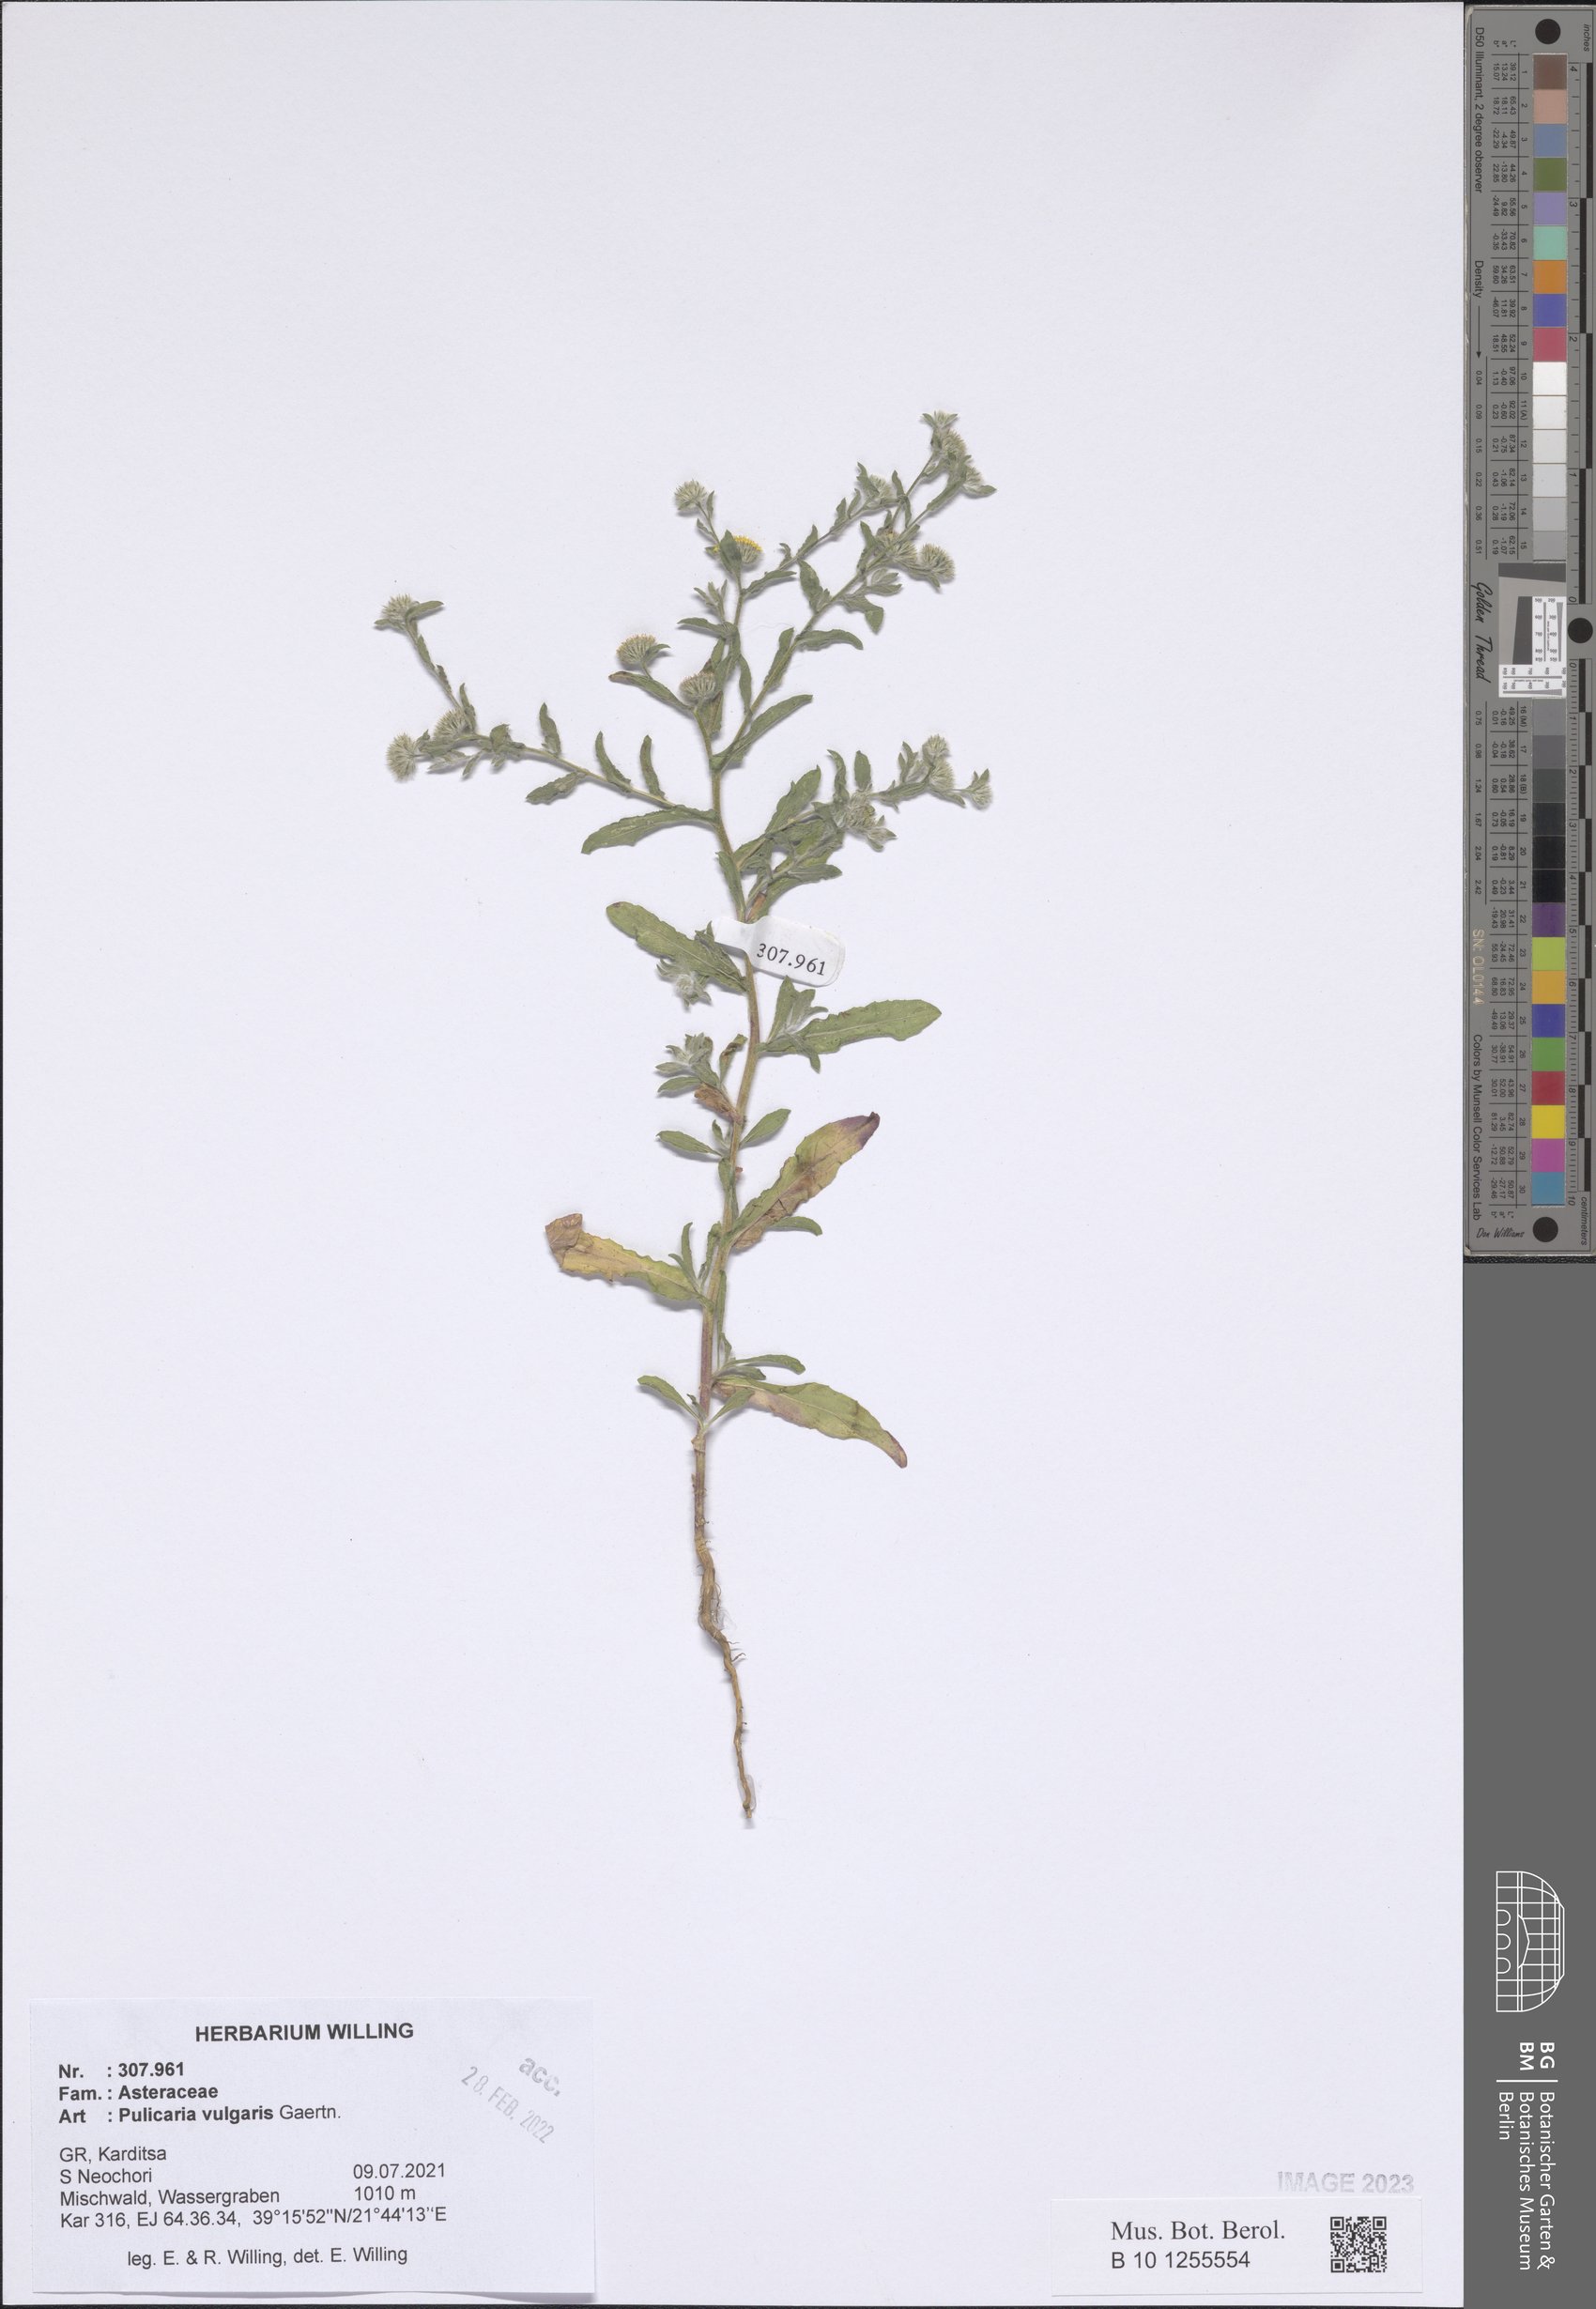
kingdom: Plantae
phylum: Tracheophyta
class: Magnoliopsida
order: Asterales
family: Asteraceae
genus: Pulicaria
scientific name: Pulicaria vulgaris
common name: Small fleabane
